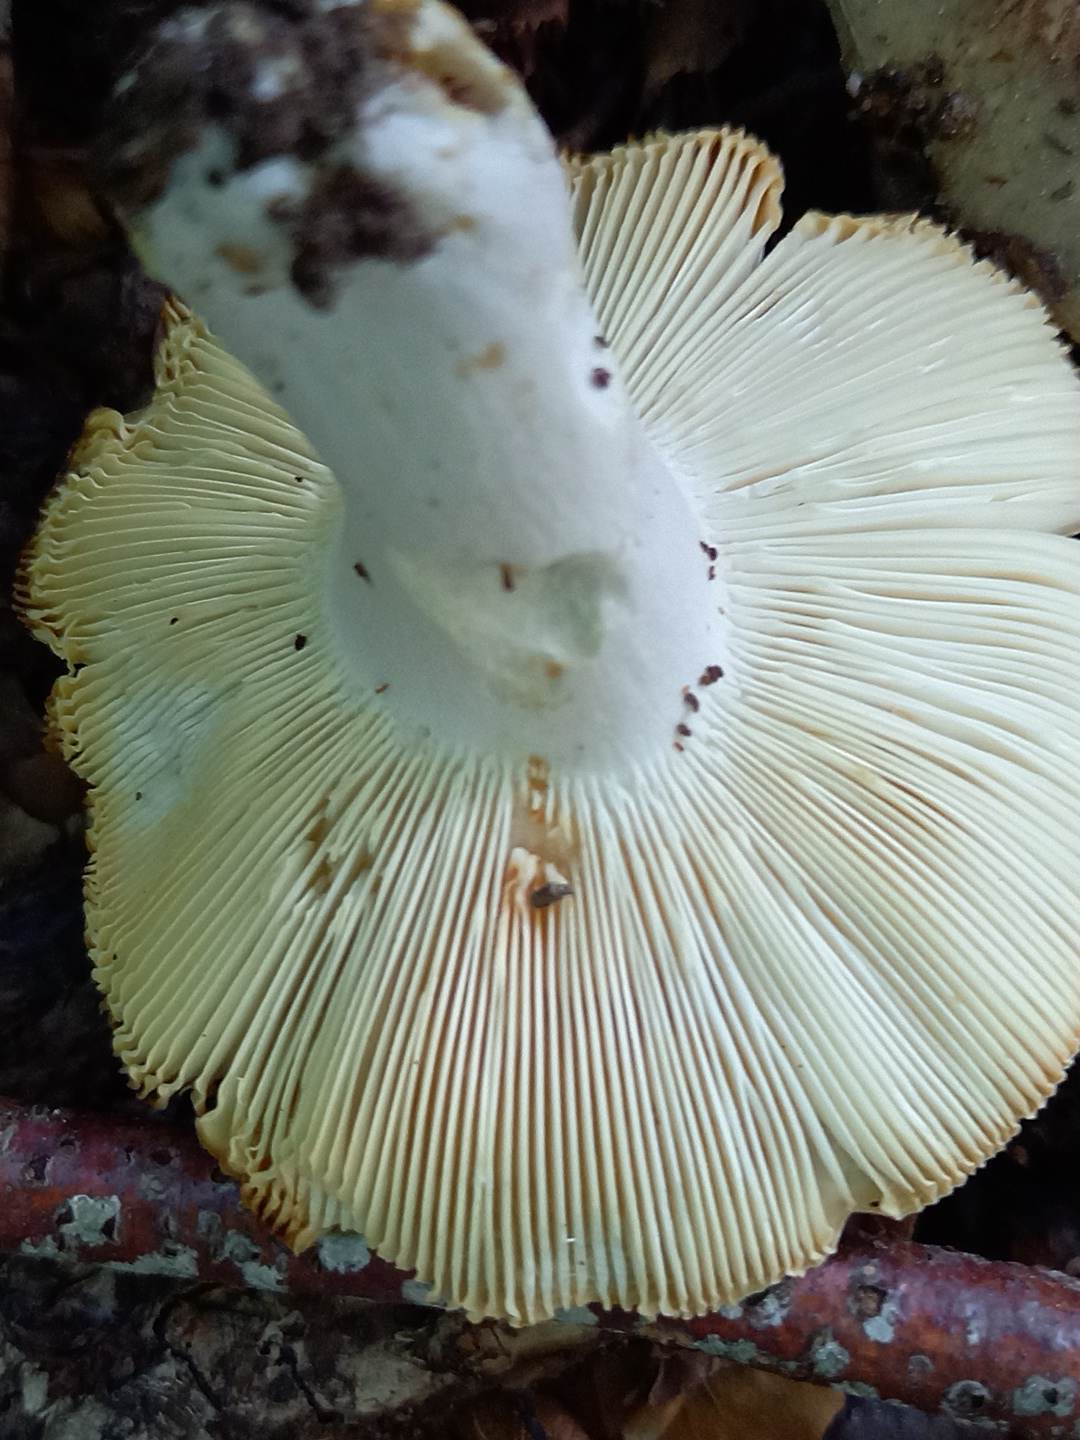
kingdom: Fungi
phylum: Basidiomycota
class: Agaricomycetes
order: Russulales
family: Russulaceae
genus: Russula
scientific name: Russula
